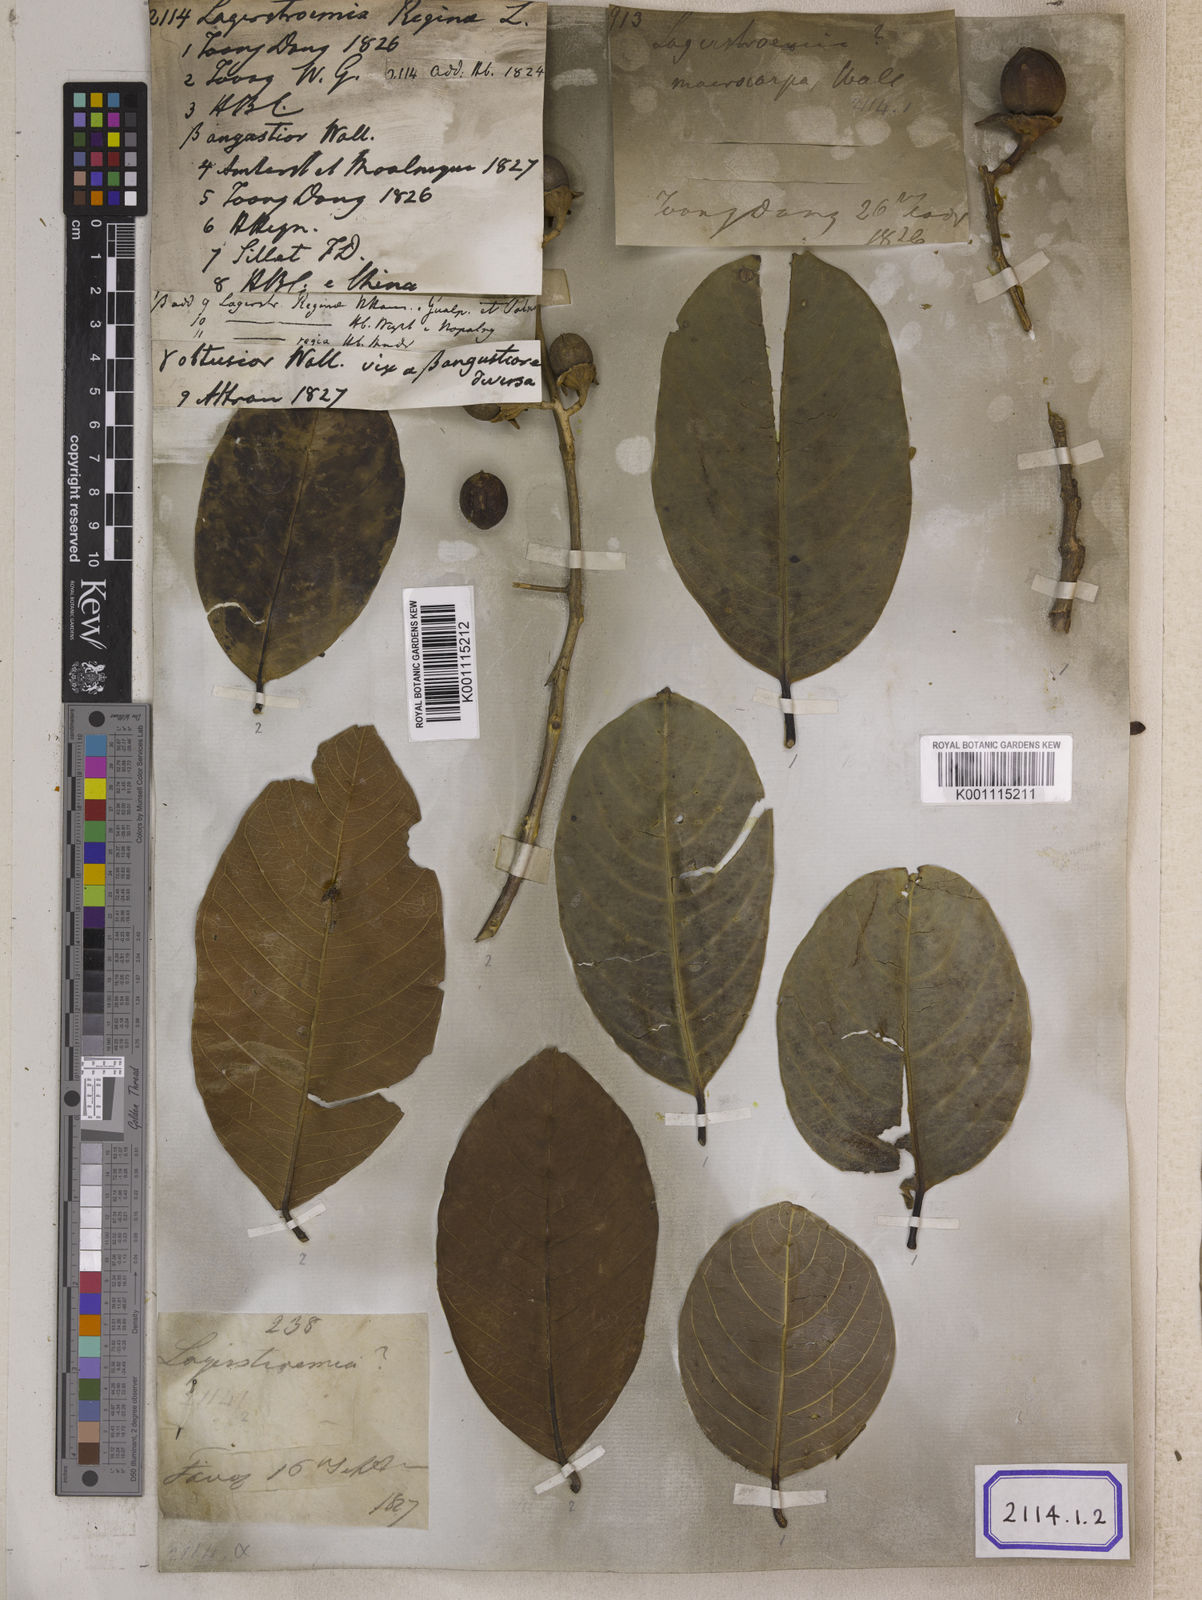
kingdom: Plantae
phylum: Tracheophyta
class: Magnoliopsida
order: Myrtales
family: Lythraceae
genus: Lagerstroemia
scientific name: Lagerstroemia
